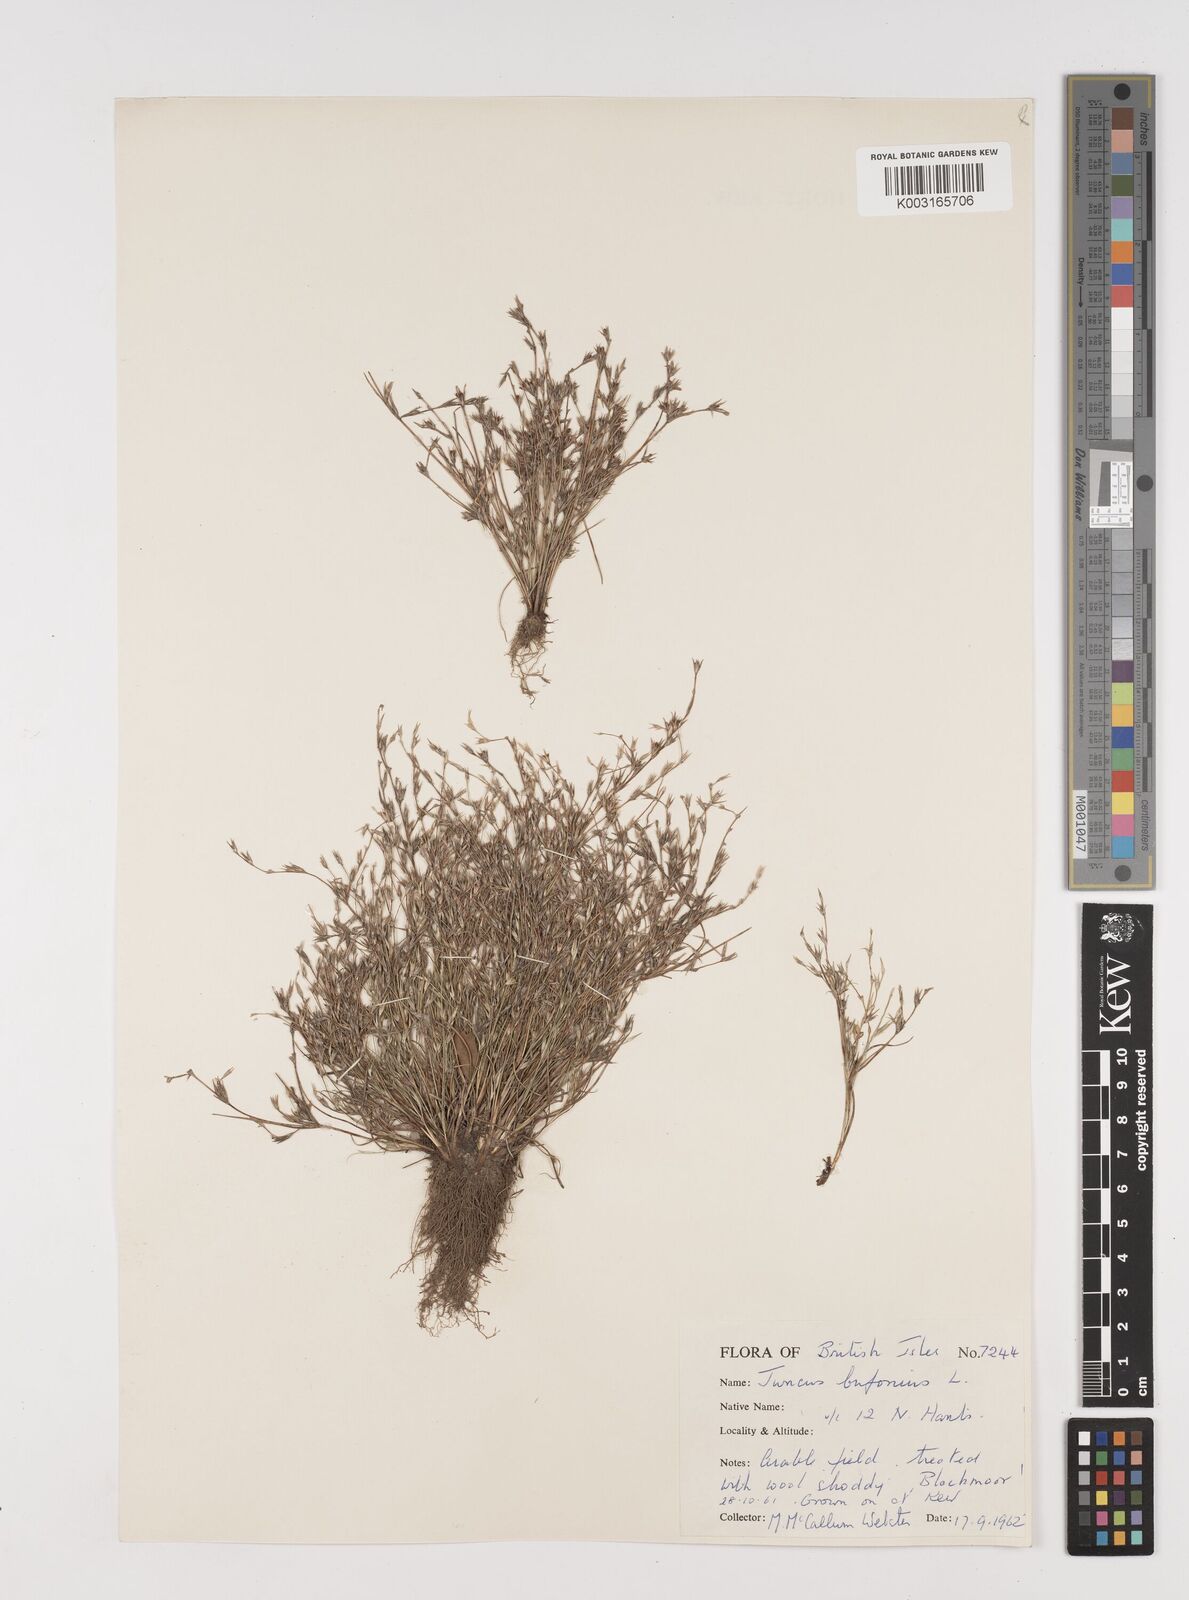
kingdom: Plantae
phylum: Tracheophyta
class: Liliopsida
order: Poales
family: Juncaceae
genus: Juncus
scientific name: Juncus bufonius
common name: Toad rush
